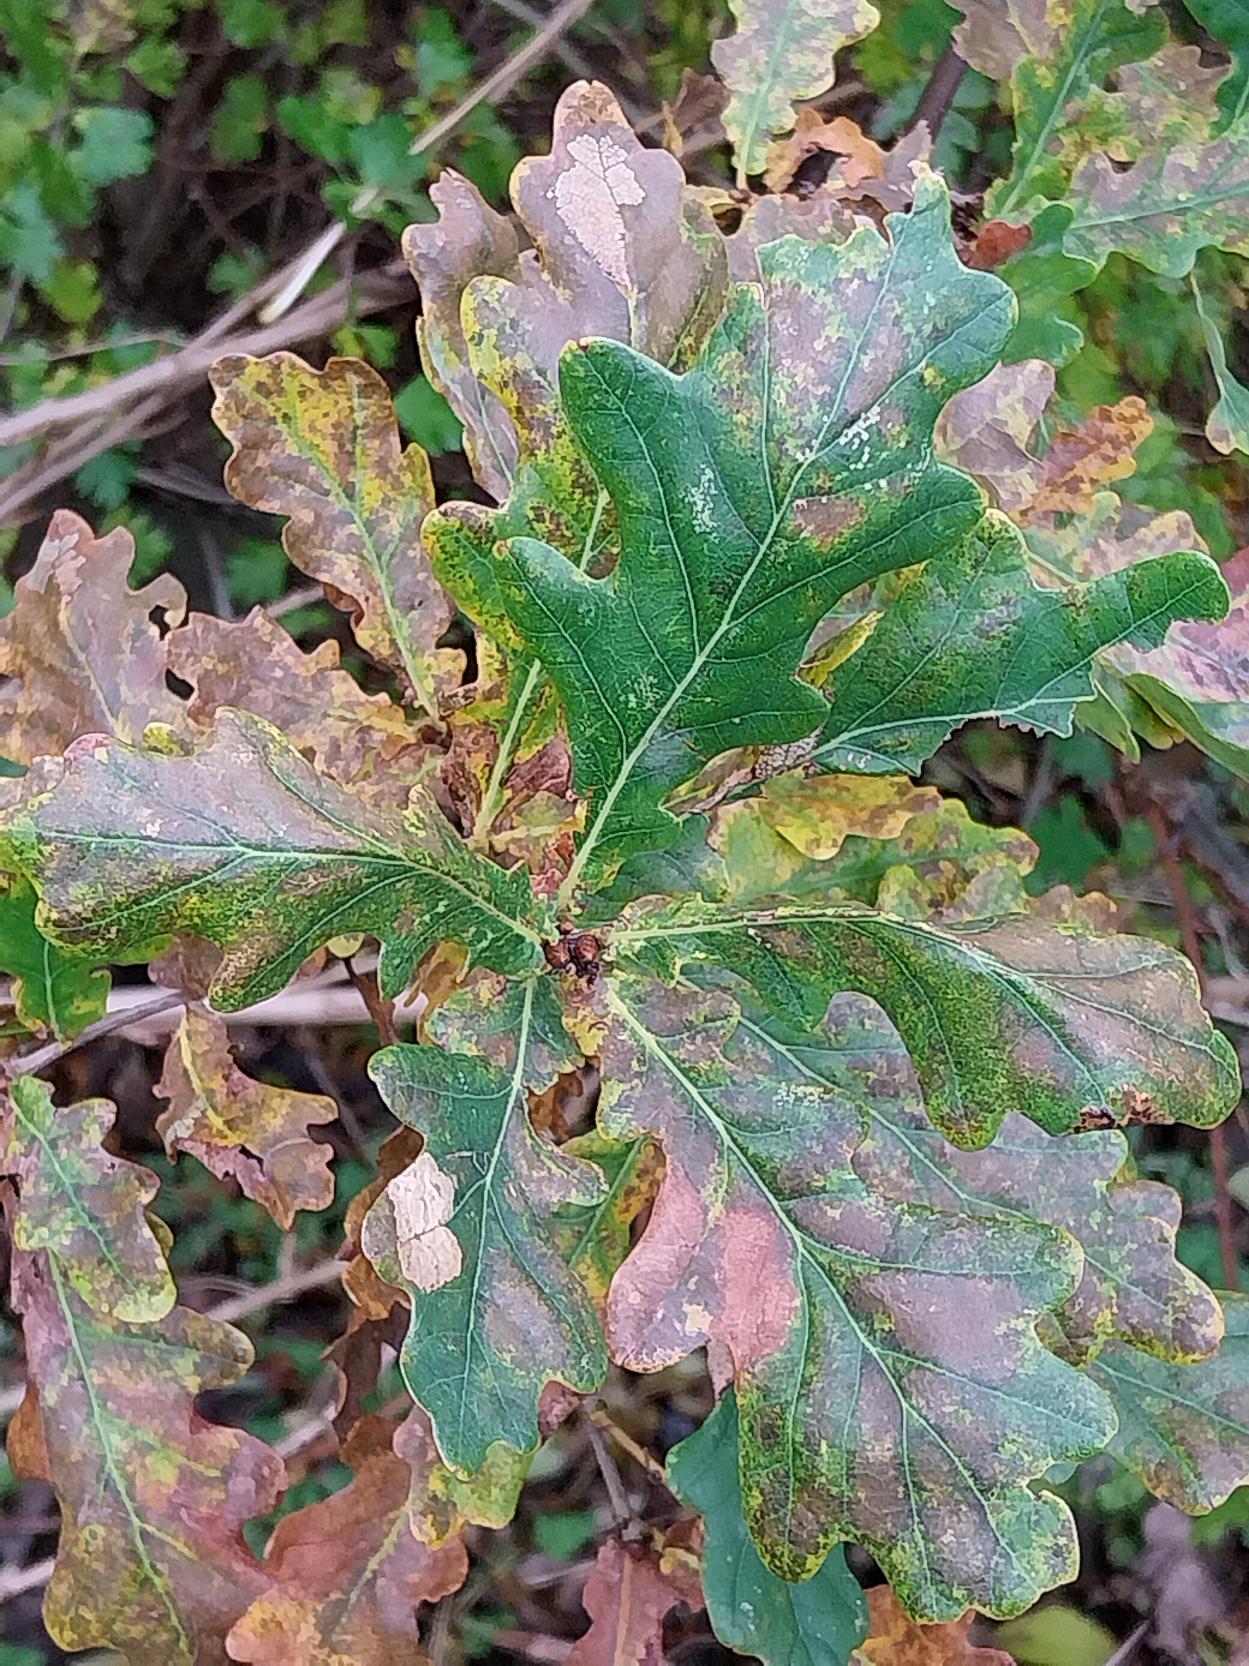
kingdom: Plantae
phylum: Tracheophyta
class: Magnoliopsida
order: Fagales
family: Fagaceae
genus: Quercus
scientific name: Quercus robur
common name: Stilk-eg/almindelig eg
